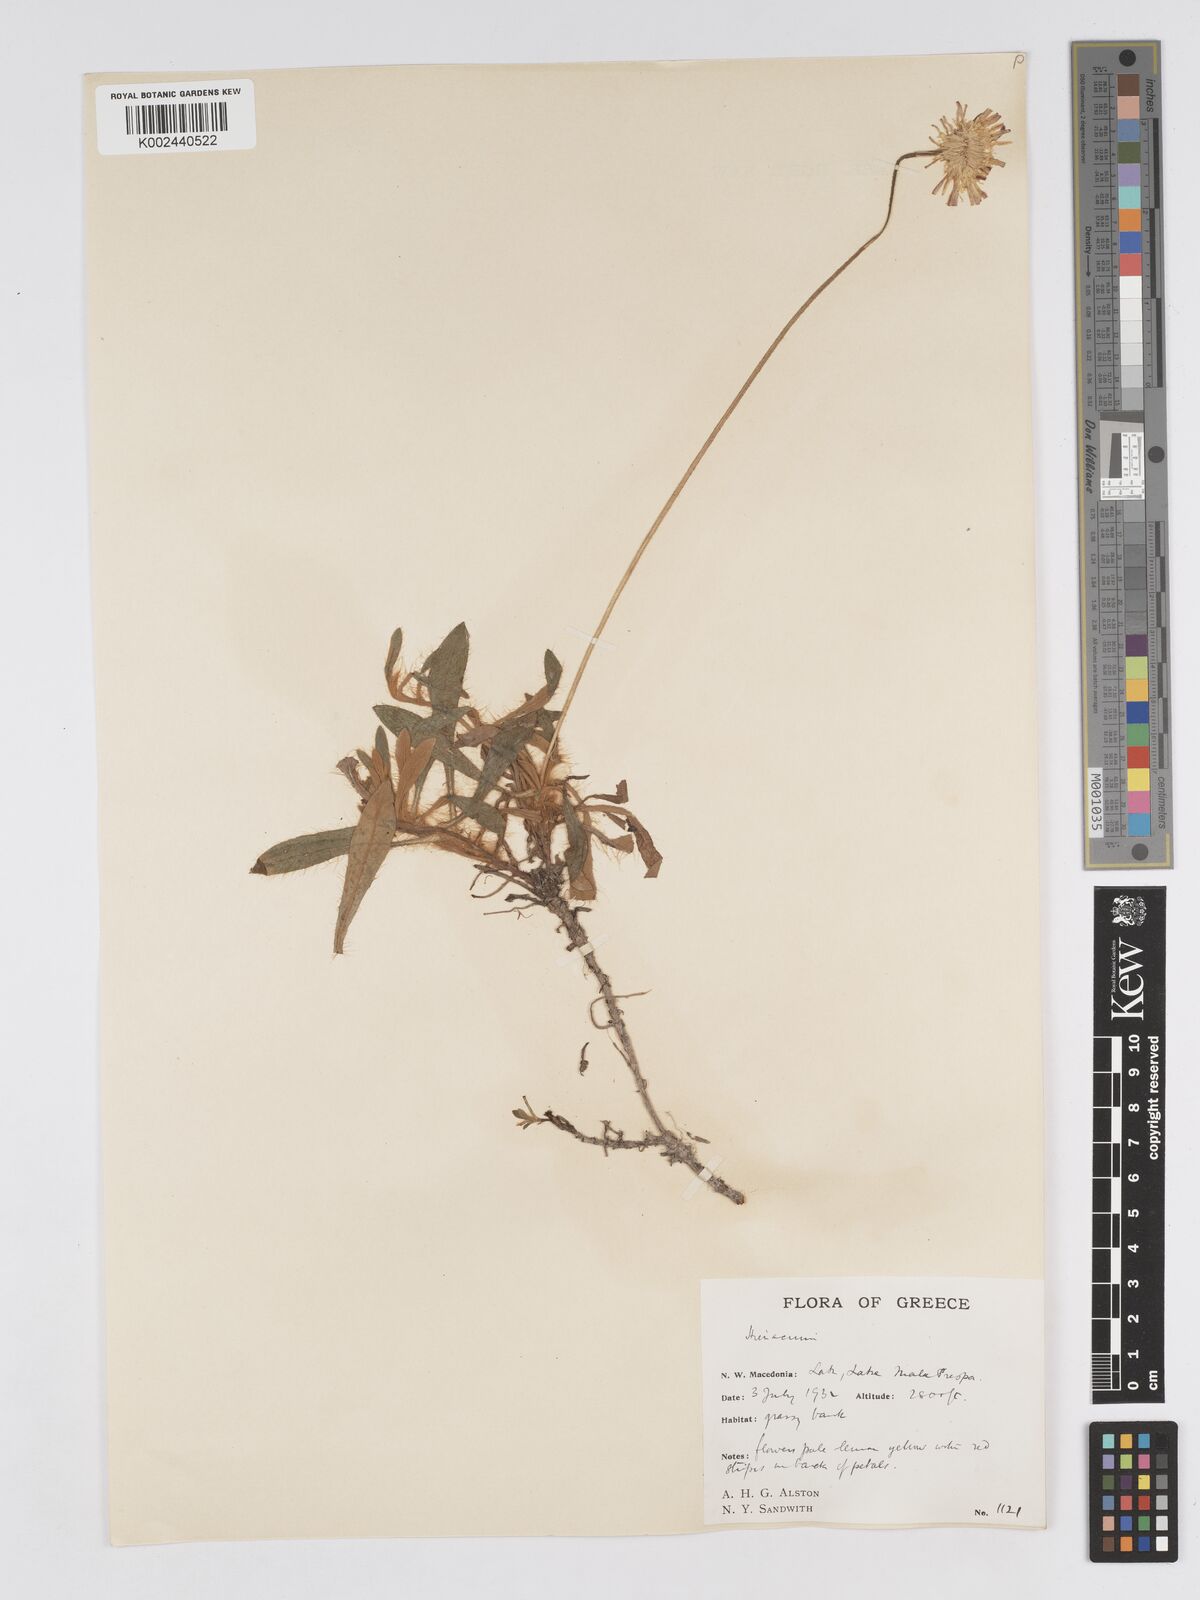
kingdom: Plantae
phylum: Tracheophyta
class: Magnoliopsida
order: Asterales
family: Asteraceae
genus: Pilosella
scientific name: Pilosella velutina
